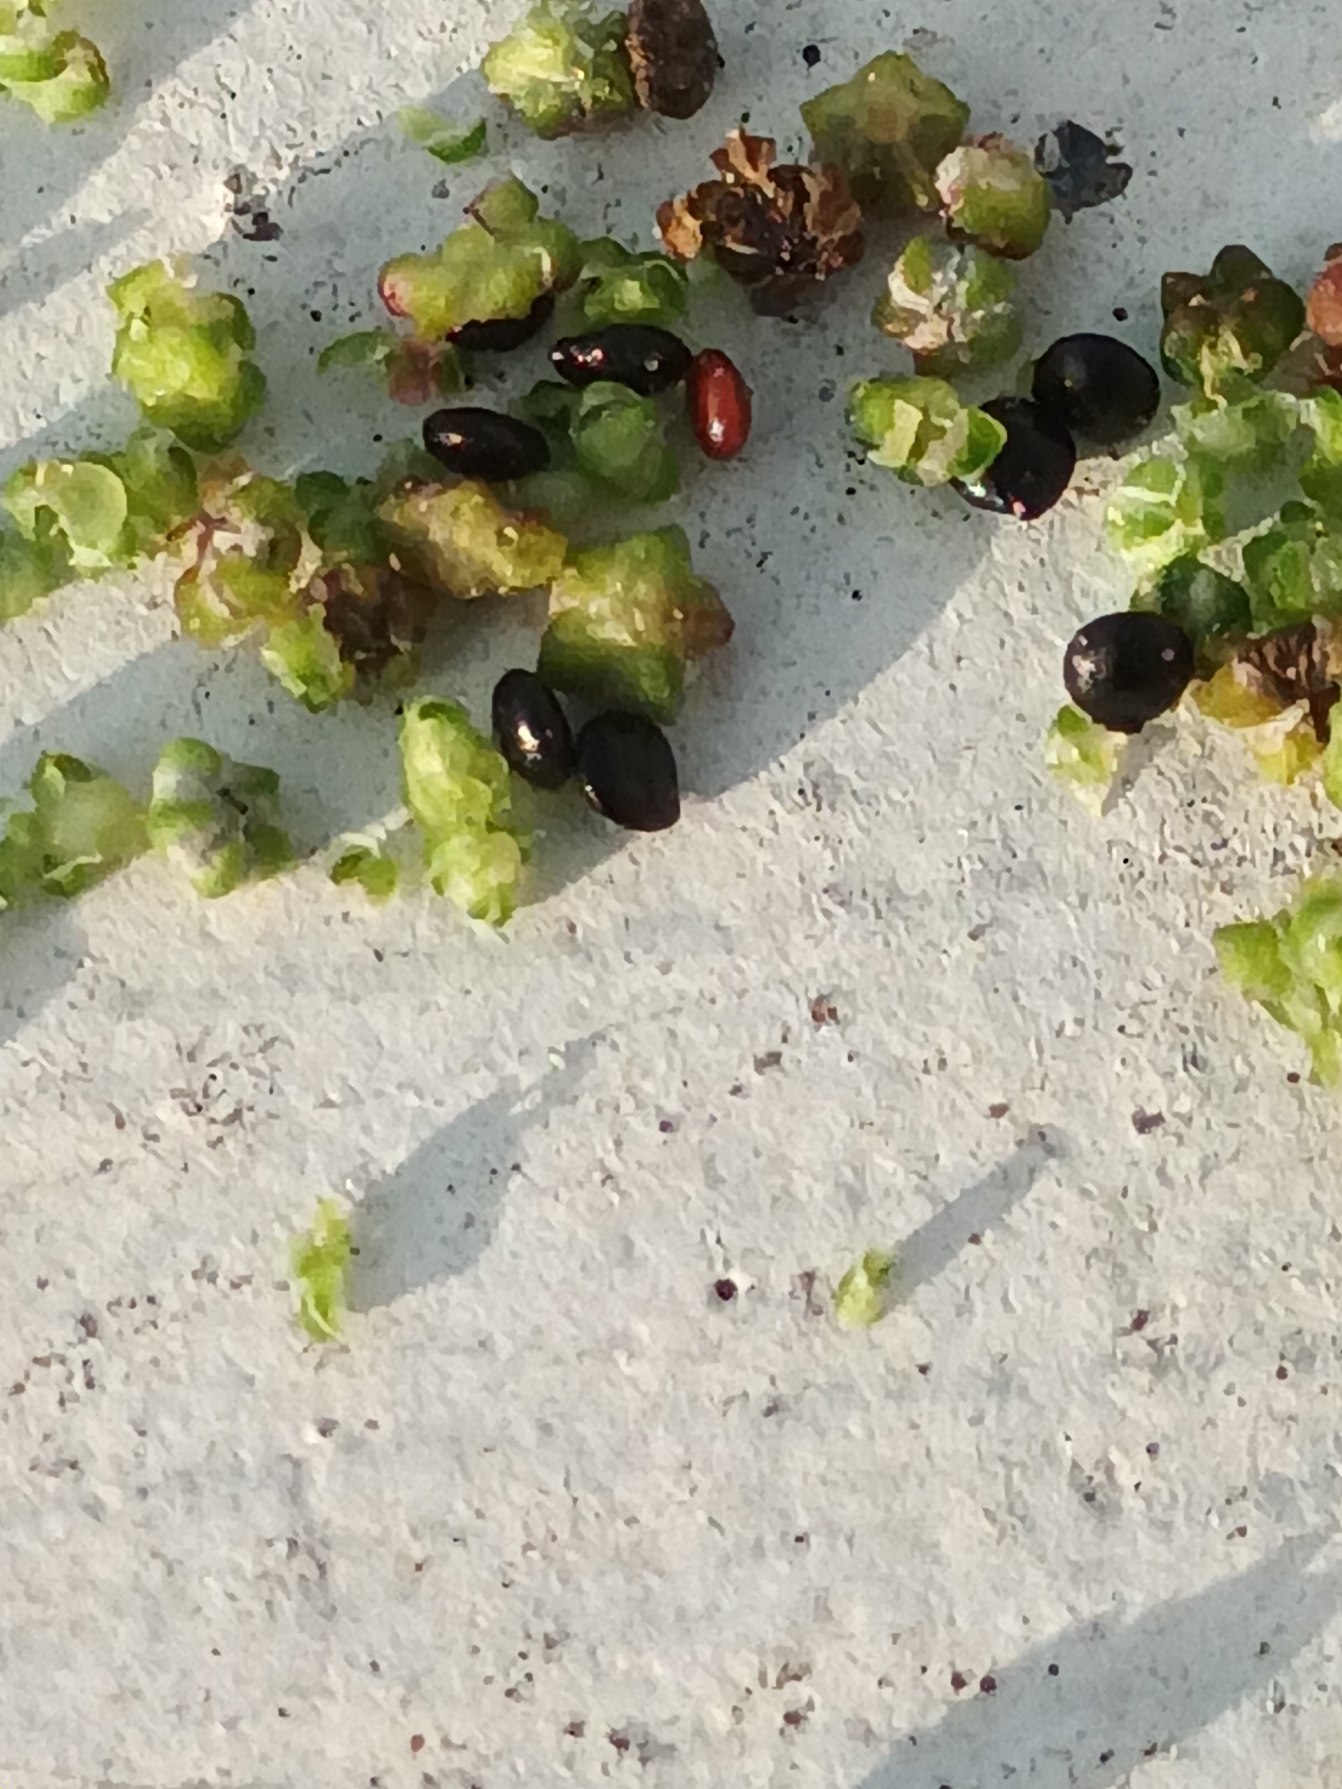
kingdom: Plantae
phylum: Tracheophyta
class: Magnoliopsida
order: Caryophyllales
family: Amaranthaceae
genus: Chenopodium
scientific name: Chenopodium pratericola
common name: Finbladet gåsefod
